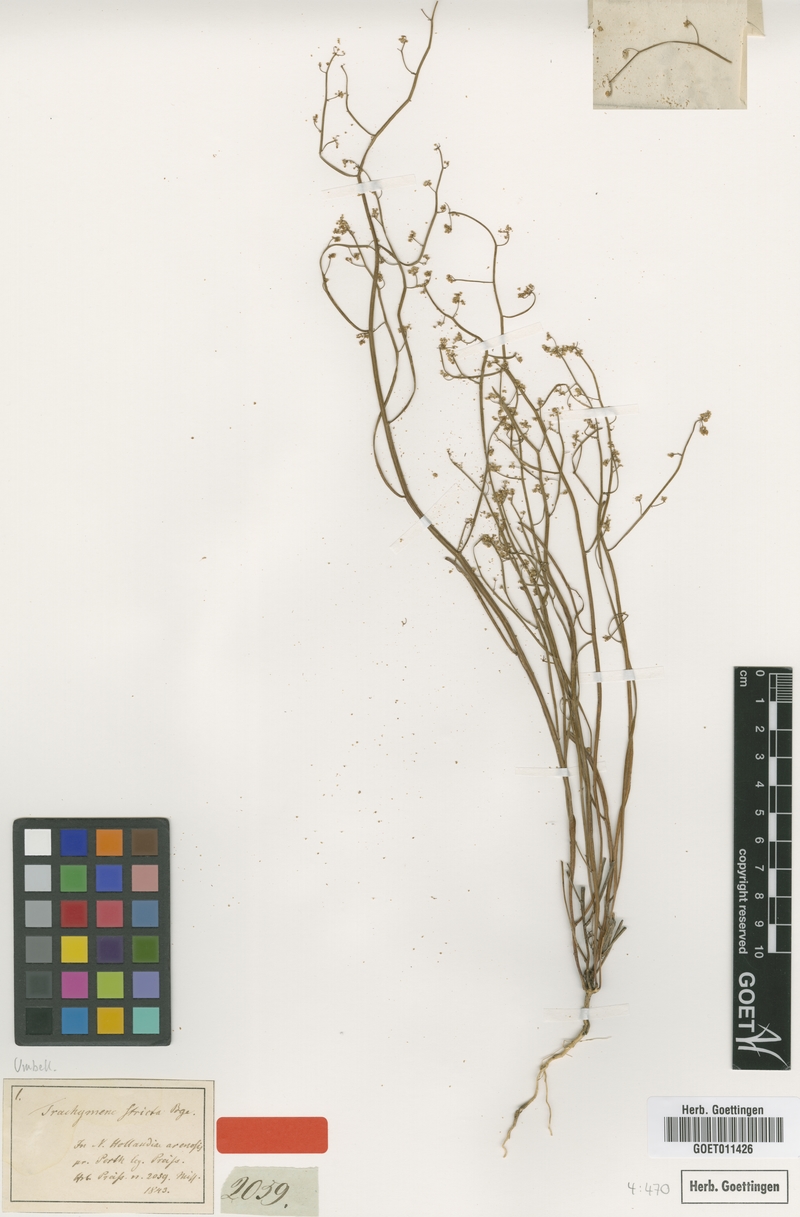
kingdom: Plantae
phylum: Tracheophyta
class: Magnoliopsida
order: Apiales
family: Apiaceae
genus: Platysace
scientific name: Platysace compressa
